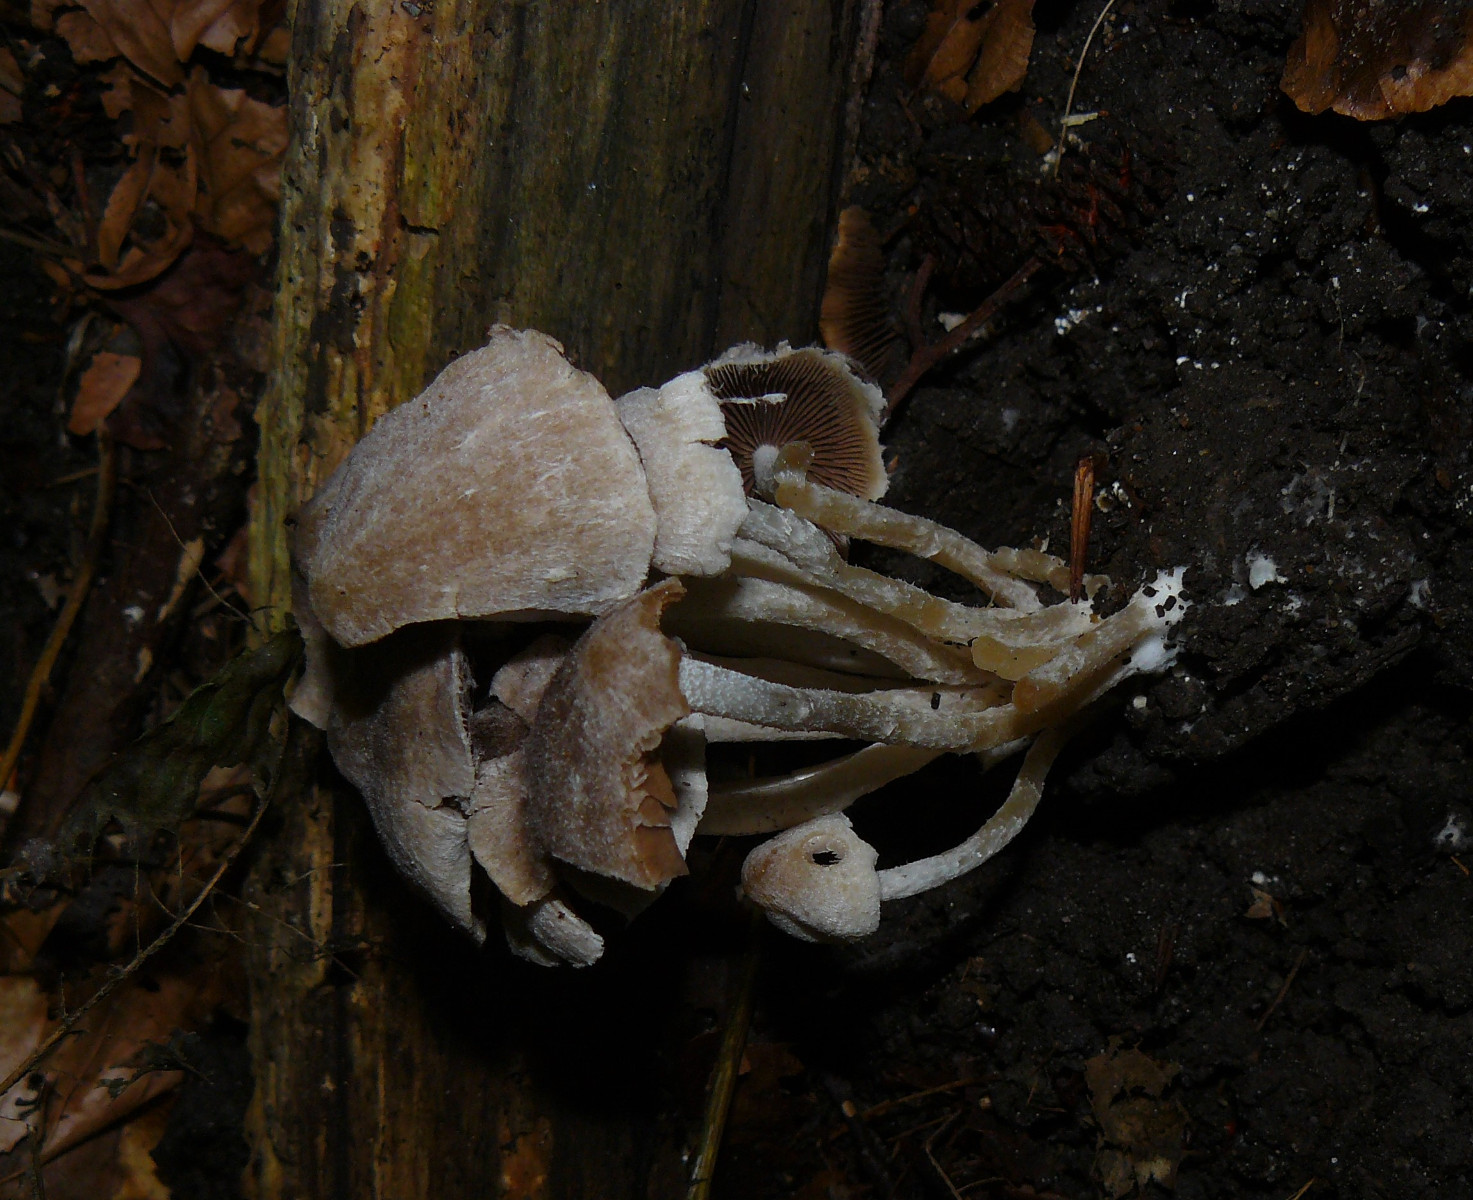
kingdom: Fungi
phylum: Basidiomycota
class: Agaricomycetes
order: Agaricales
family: Psathyrellaceae
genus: Coprinopsis
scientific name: Coprinopsis canoceps
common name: gråhåret blækhat
